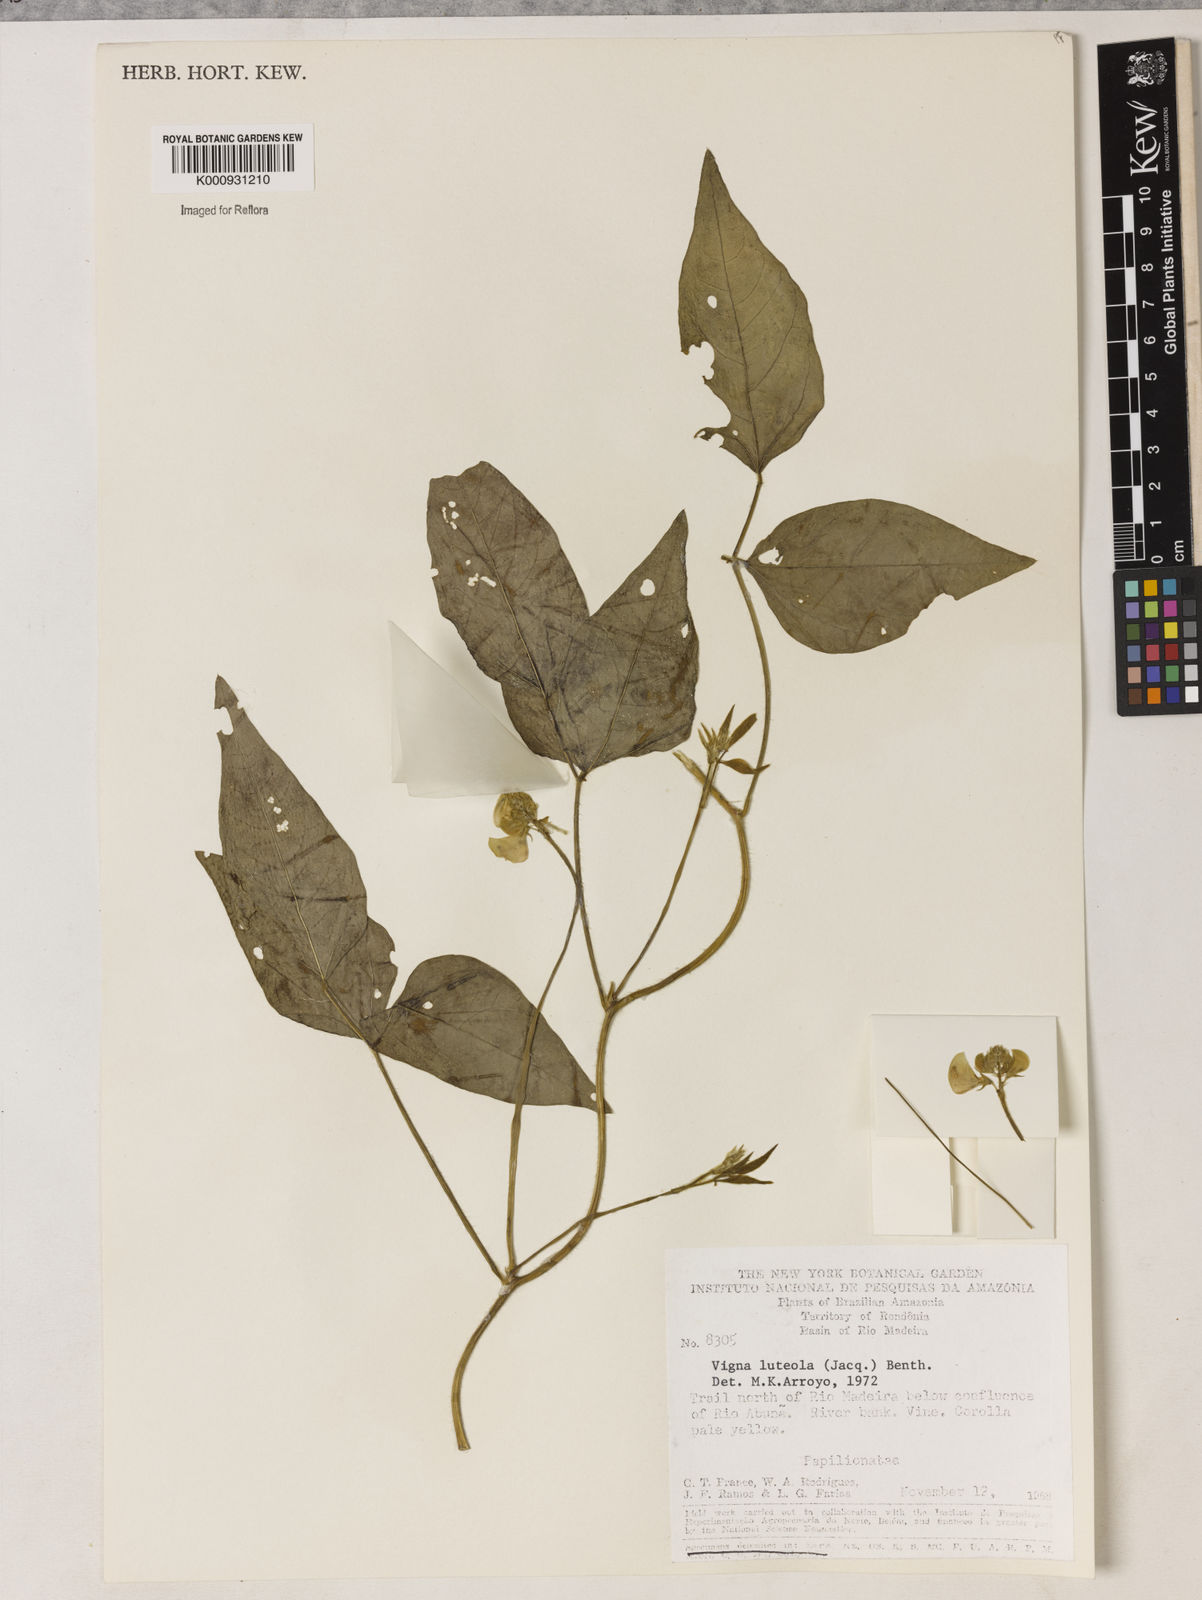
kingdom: Plantae
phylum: Tracheophyta
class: Magnoliopsida
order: Fabales
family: Fabaceae
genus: Vigna
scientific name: Vigna luteola
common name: Hairypod cowpea
